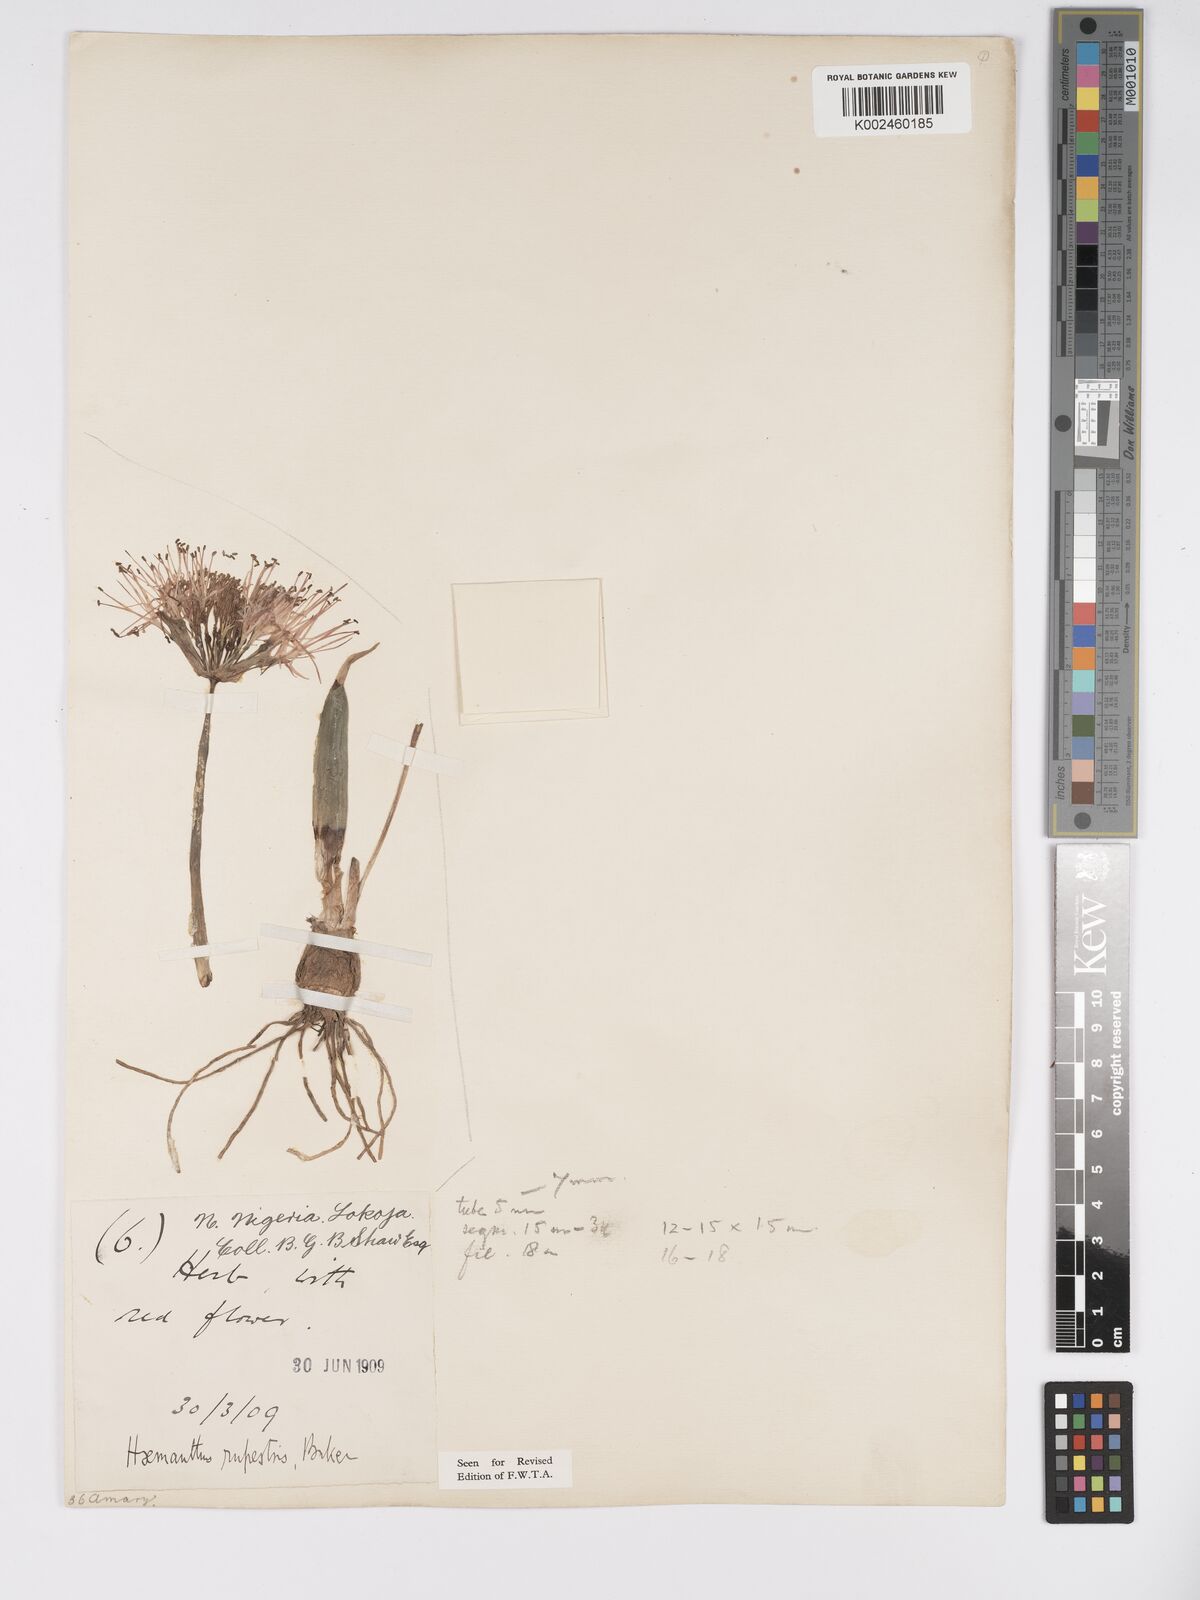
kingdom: Plantae
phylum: Tracheophyta
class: Liliopsida
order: Asparagales
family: Amaryllidaceae
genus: Scadoxus
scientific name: Scadoxus multiflorus
